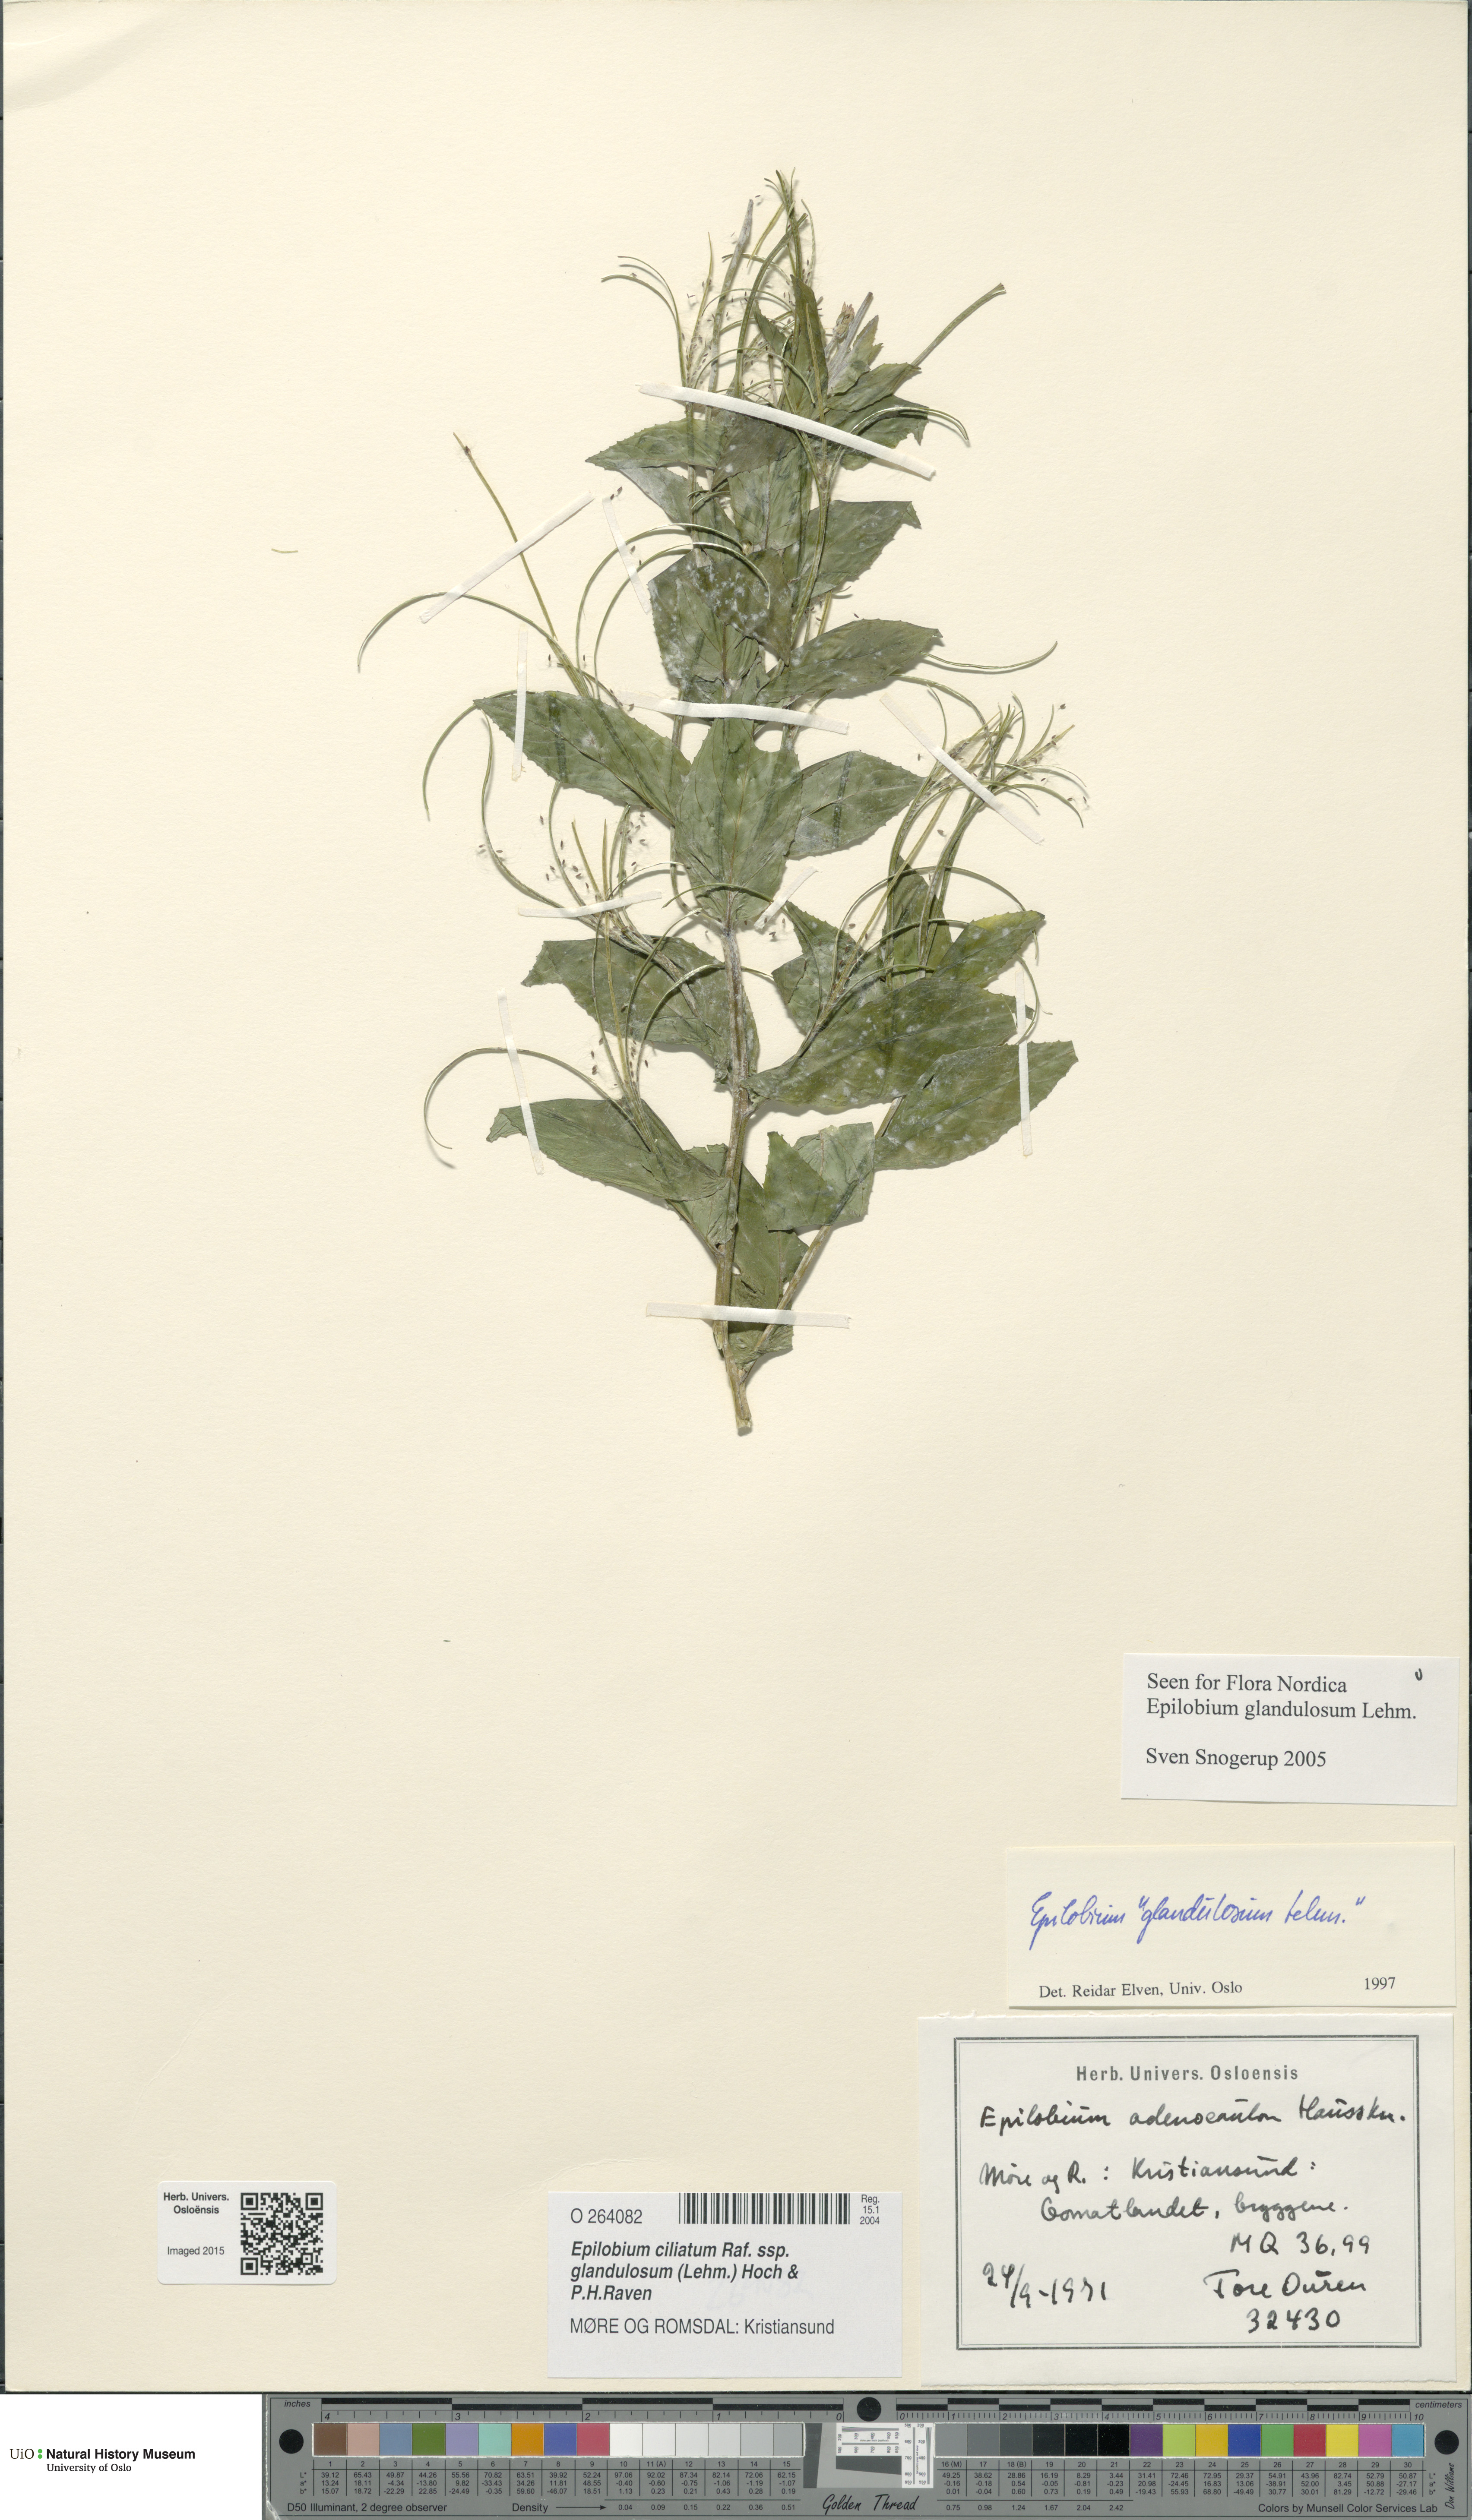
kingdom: Plantae
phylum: Tracheophyta
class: Magnoliopsida
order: Myrtales
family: Onagraceae
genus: Epilobium
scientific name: Epilobium ciliatum
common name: American willowherb
